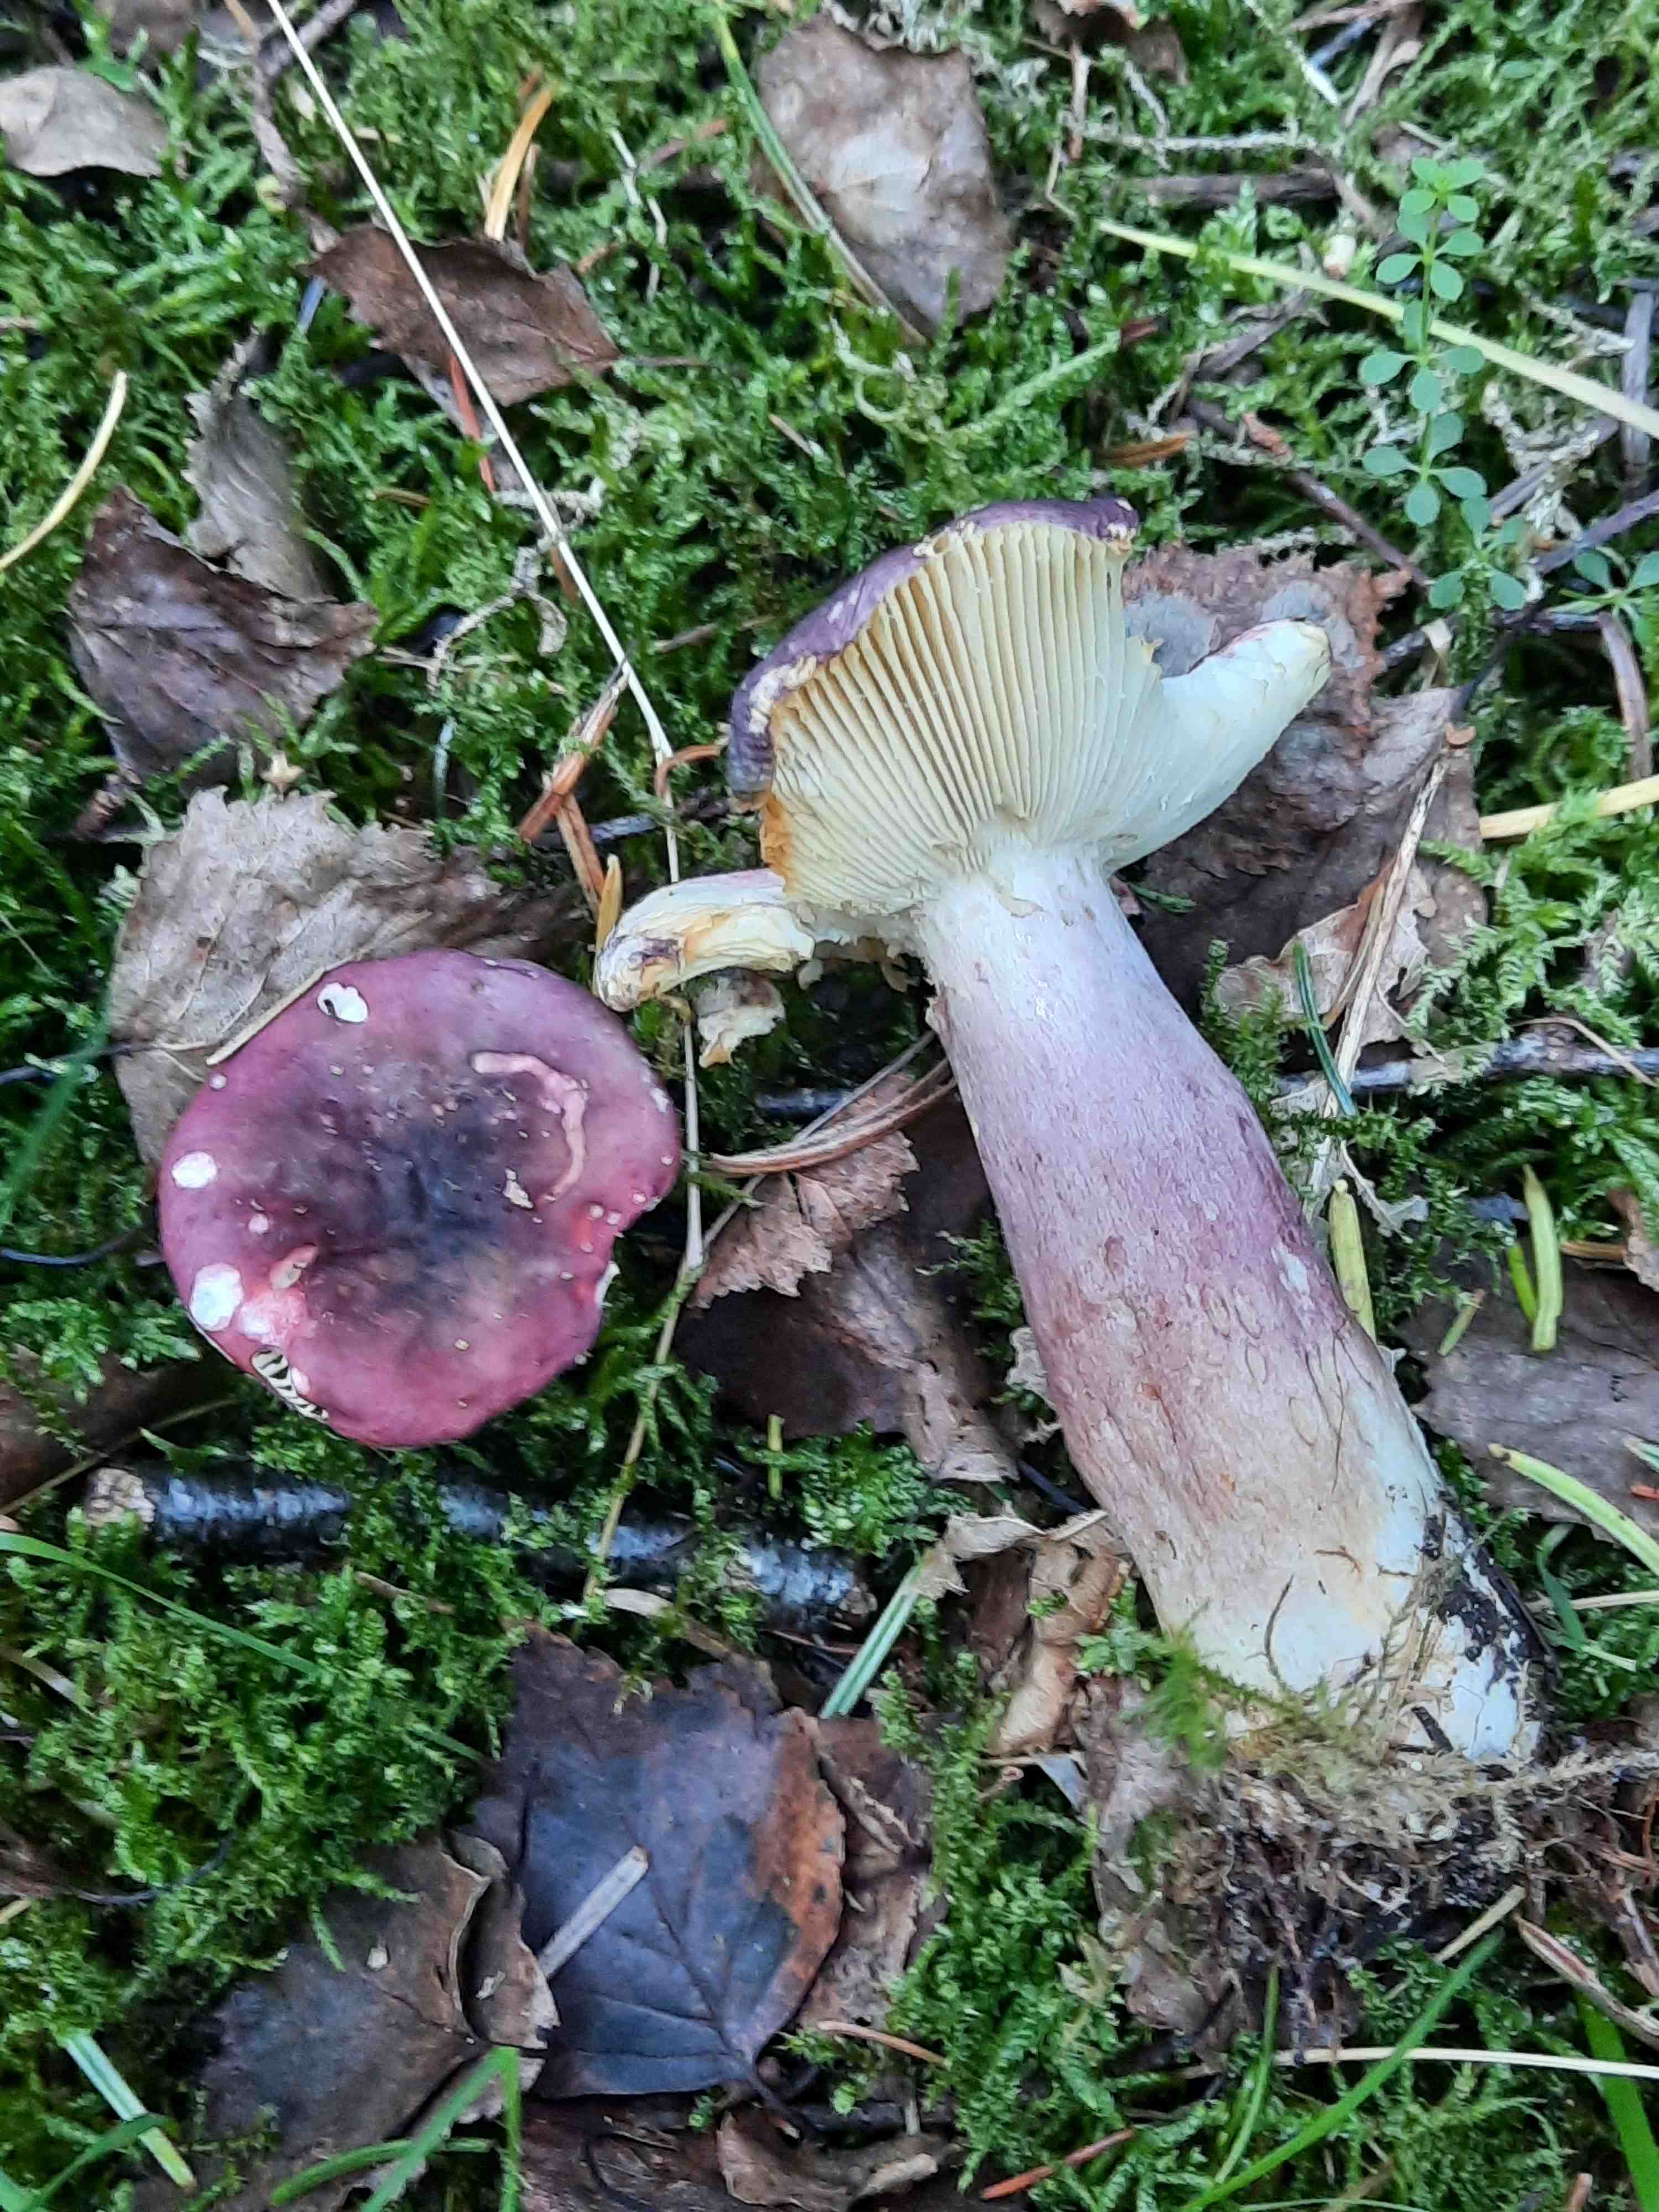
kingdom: Fungi
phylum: Basidiomycota
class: Agaricomycetes
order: Russulales
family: Russulaceae
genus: Russula
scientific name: Russula sardonia
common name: citronbladet skørhat
